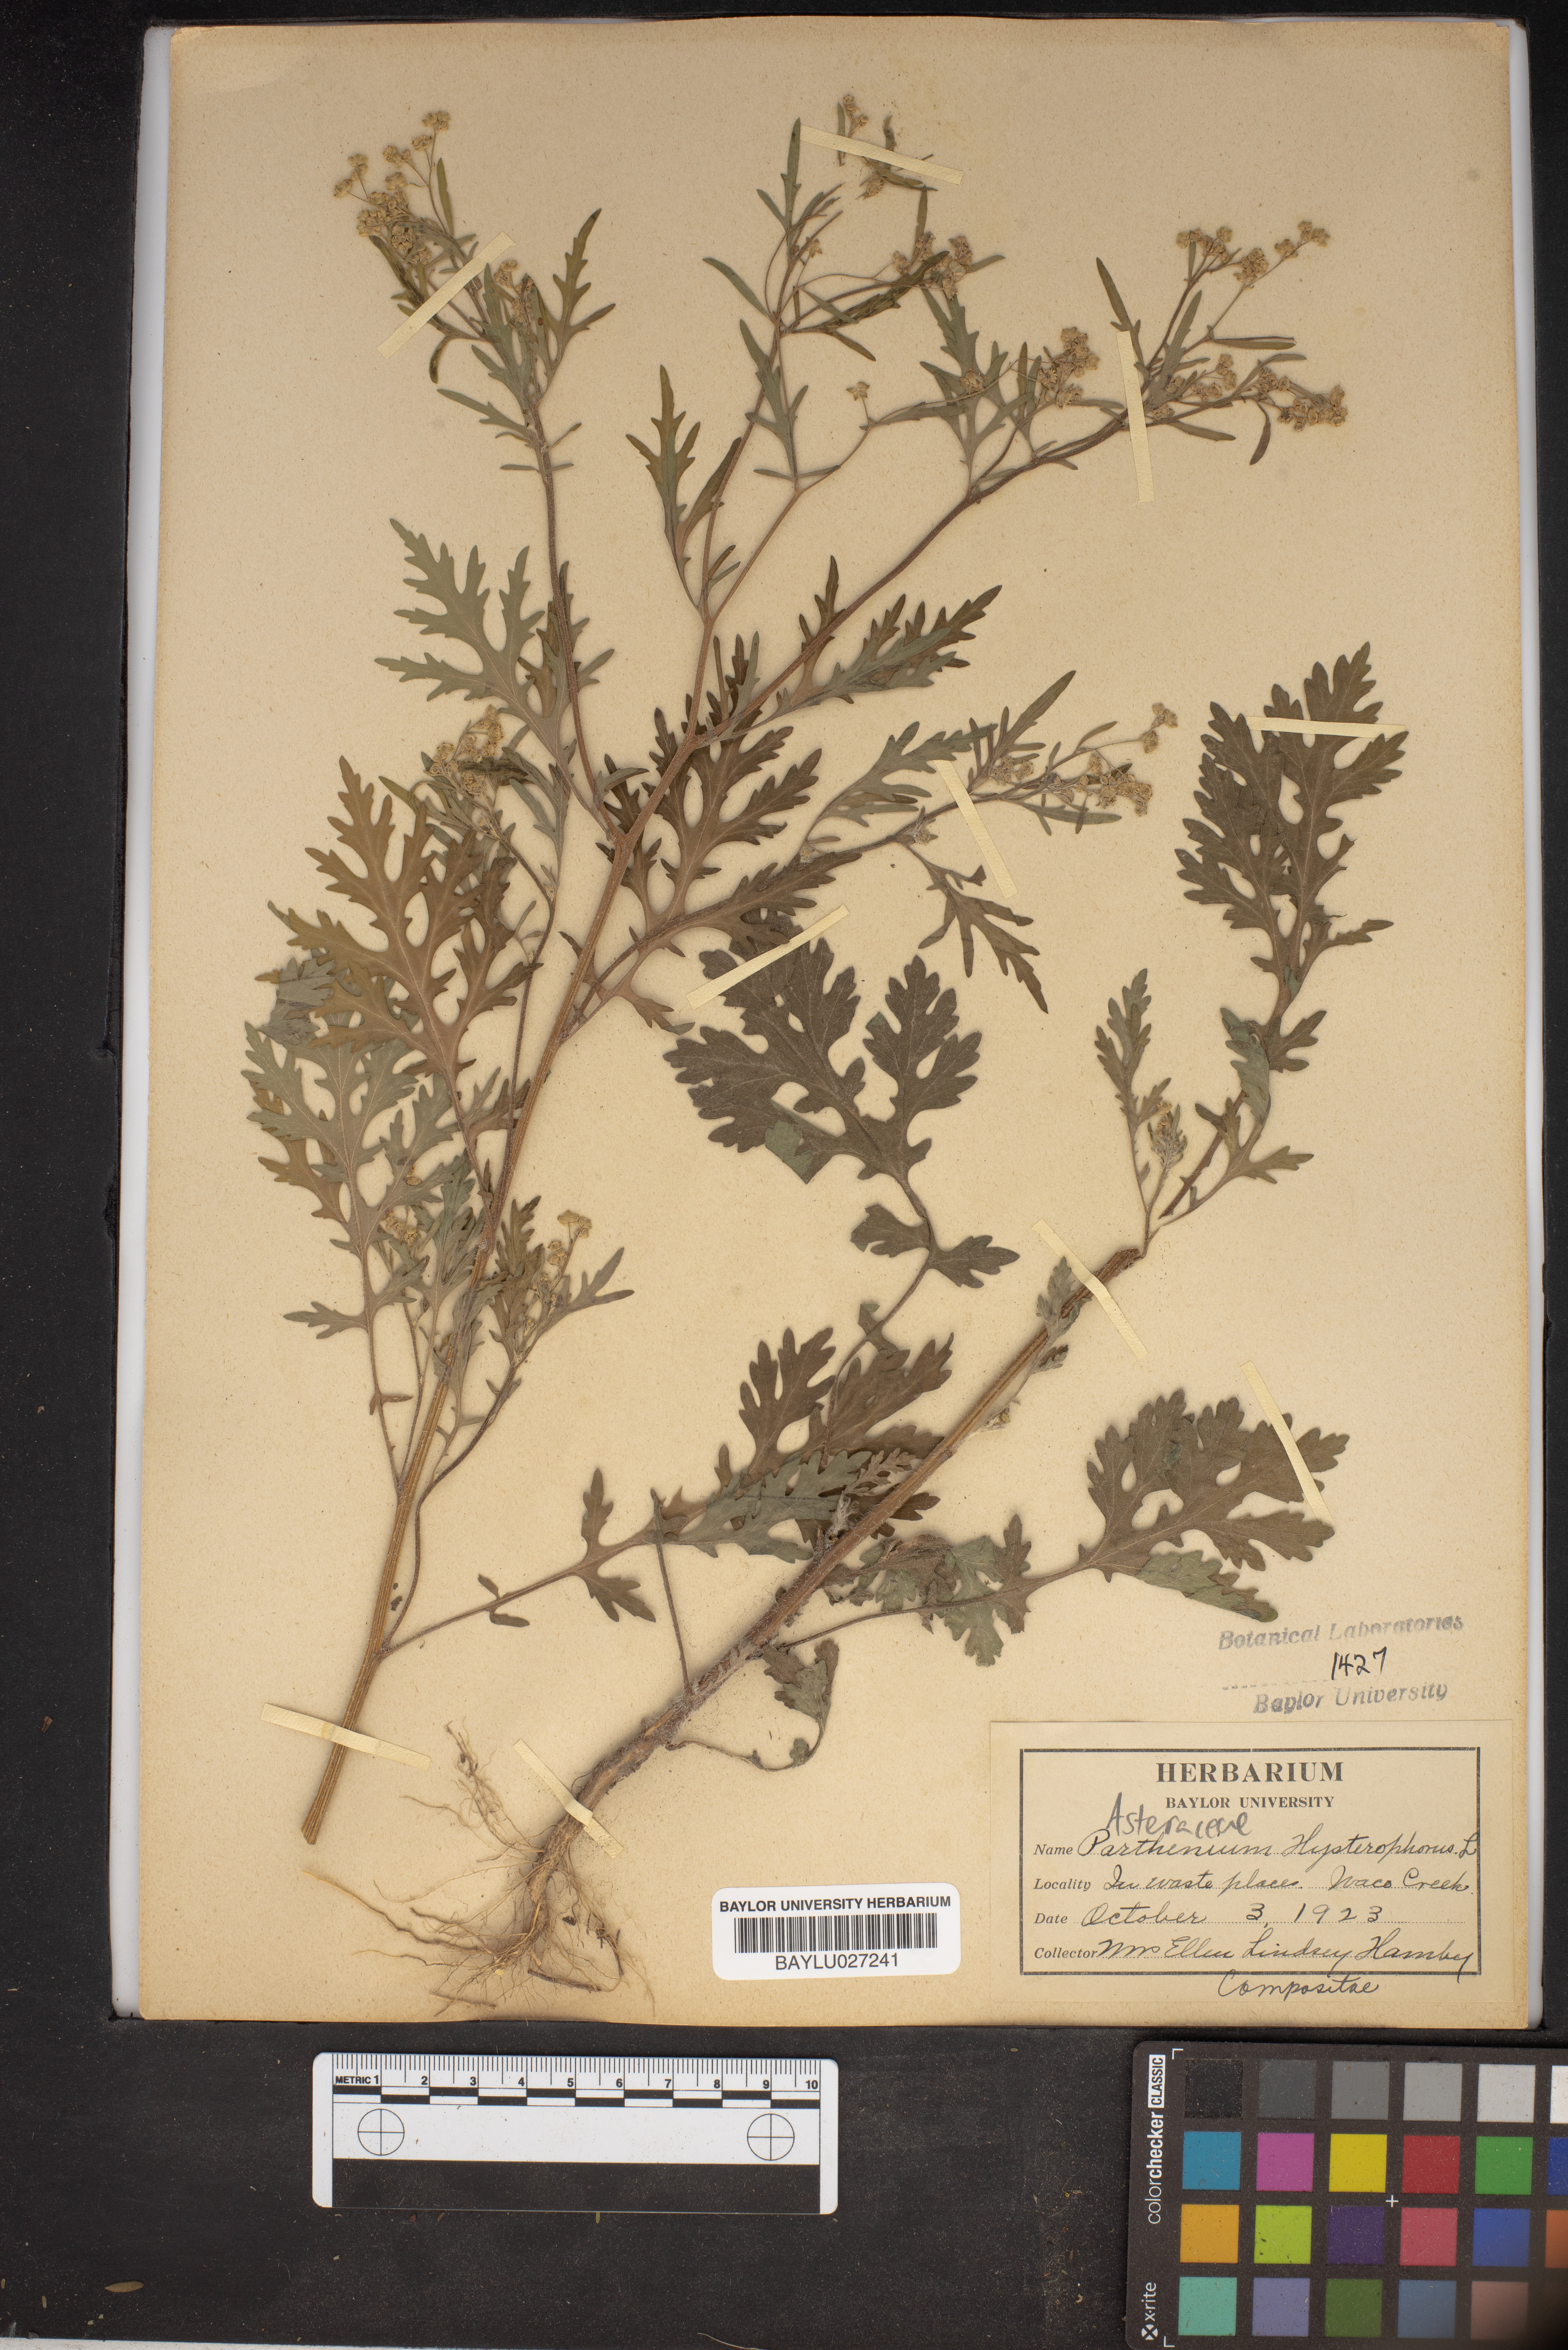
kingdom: Plantae
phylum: Tracheophyta
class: Magnoliopsida
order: Asterales
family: Asteraceae
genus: Parthenium
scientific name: Parthenium hysterophorus
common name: Santa maria feverfew
